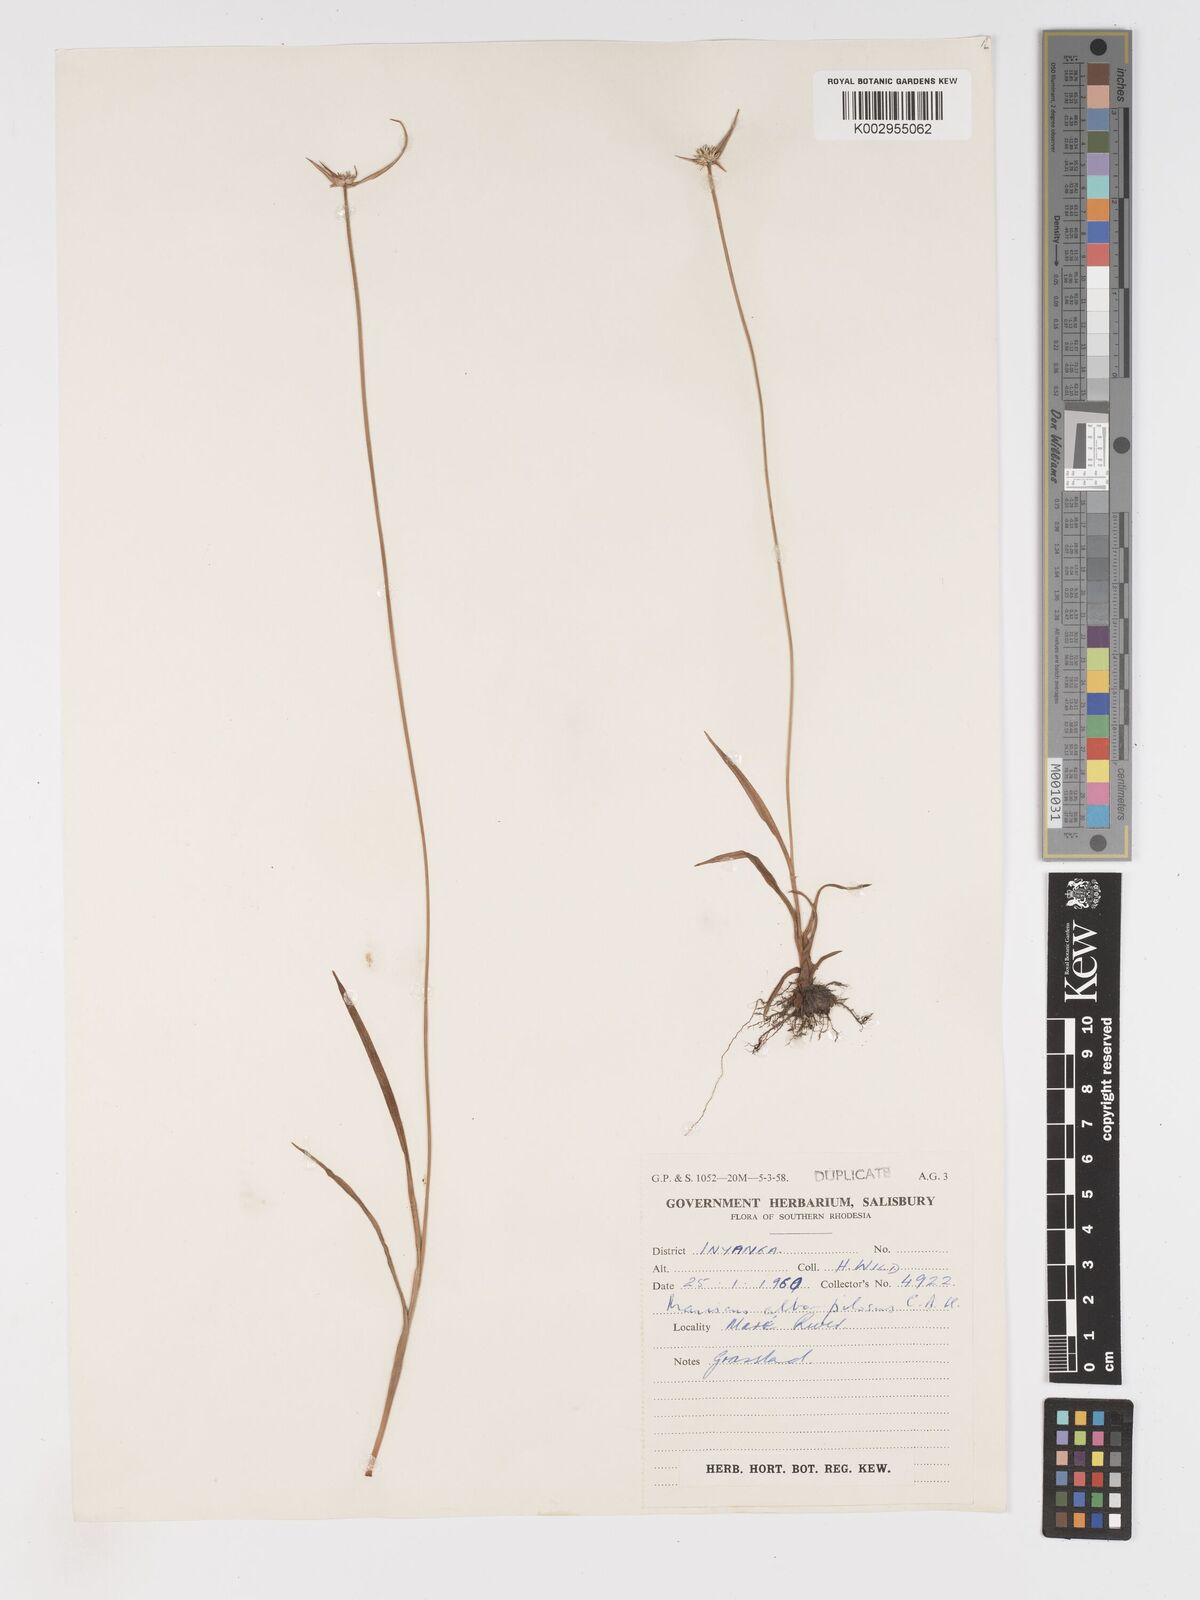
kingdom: Plantae
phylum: Tracheophyta
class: Liliopsida
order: Poales
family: Cyperaceae
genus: Cyperus
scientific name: Cyperus albopilosus
